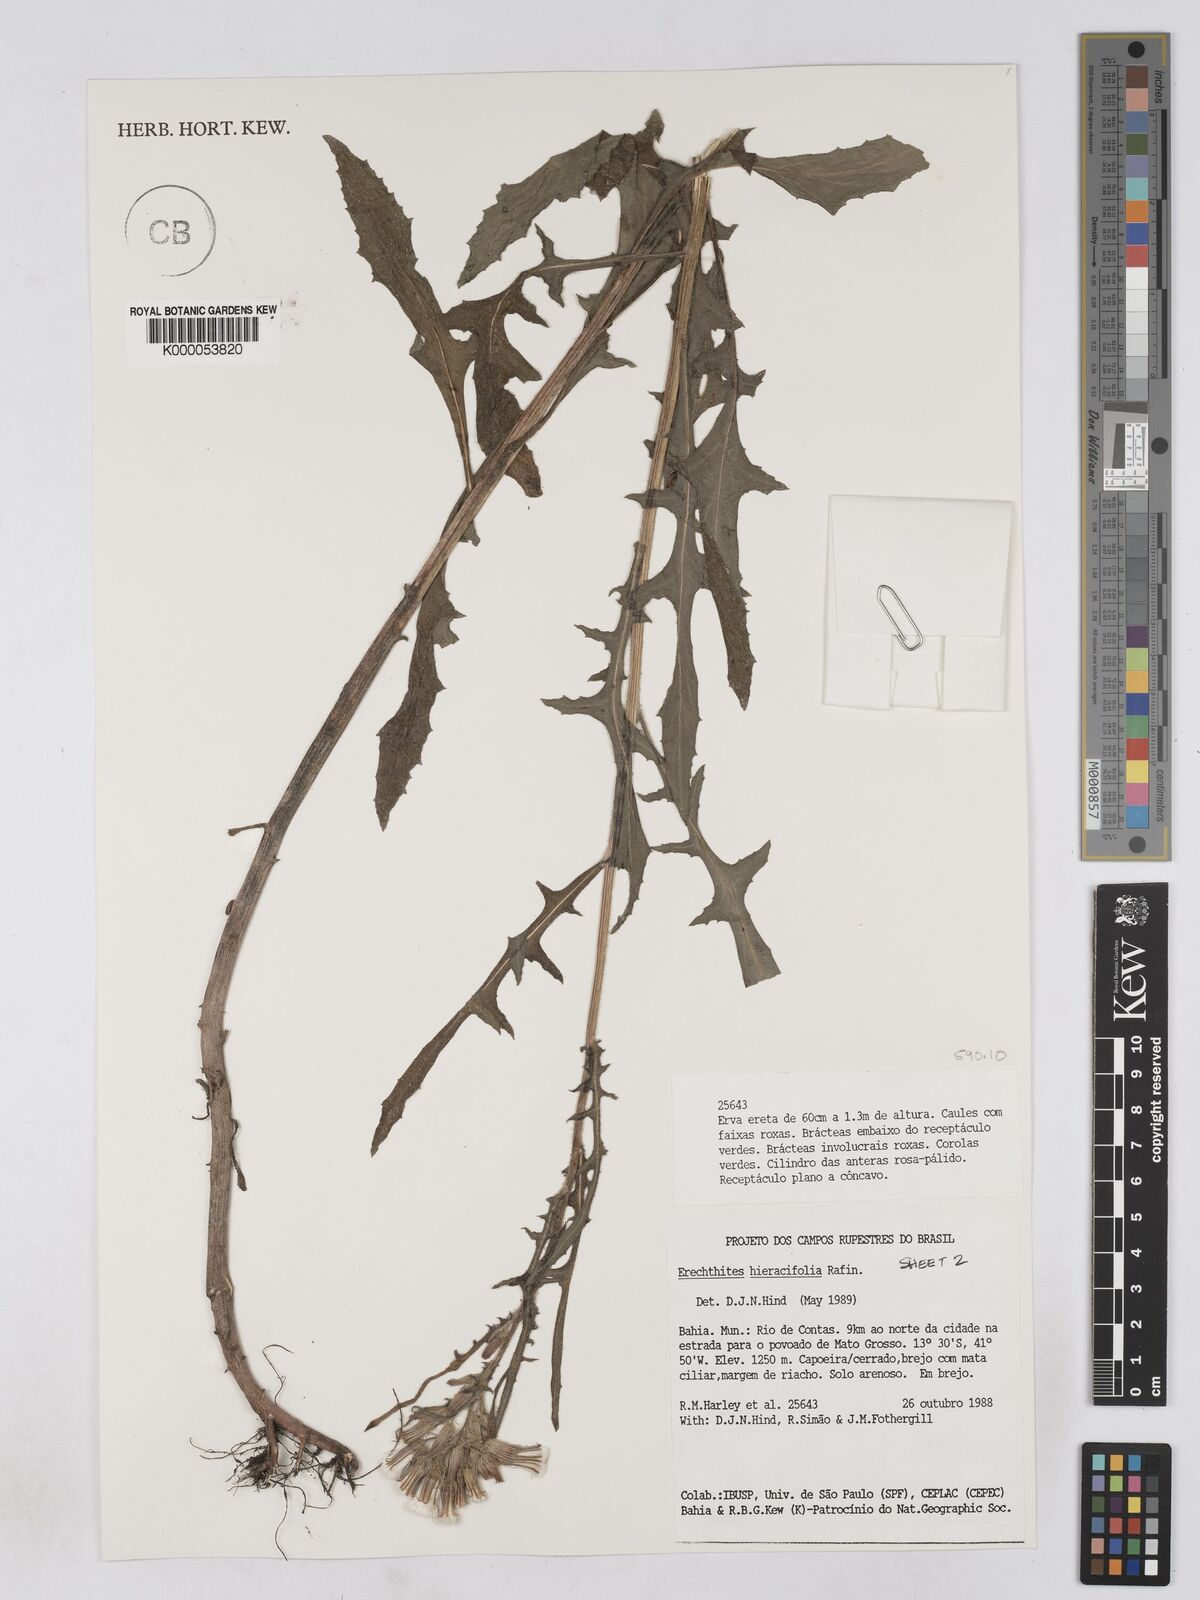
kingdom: Plantae
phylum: Tracheophyta
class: Magnoliopsida
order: Asterales
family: Asteraceae
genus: Erechtites
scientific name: Erechtites hieraciifolius
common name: American burnweed
